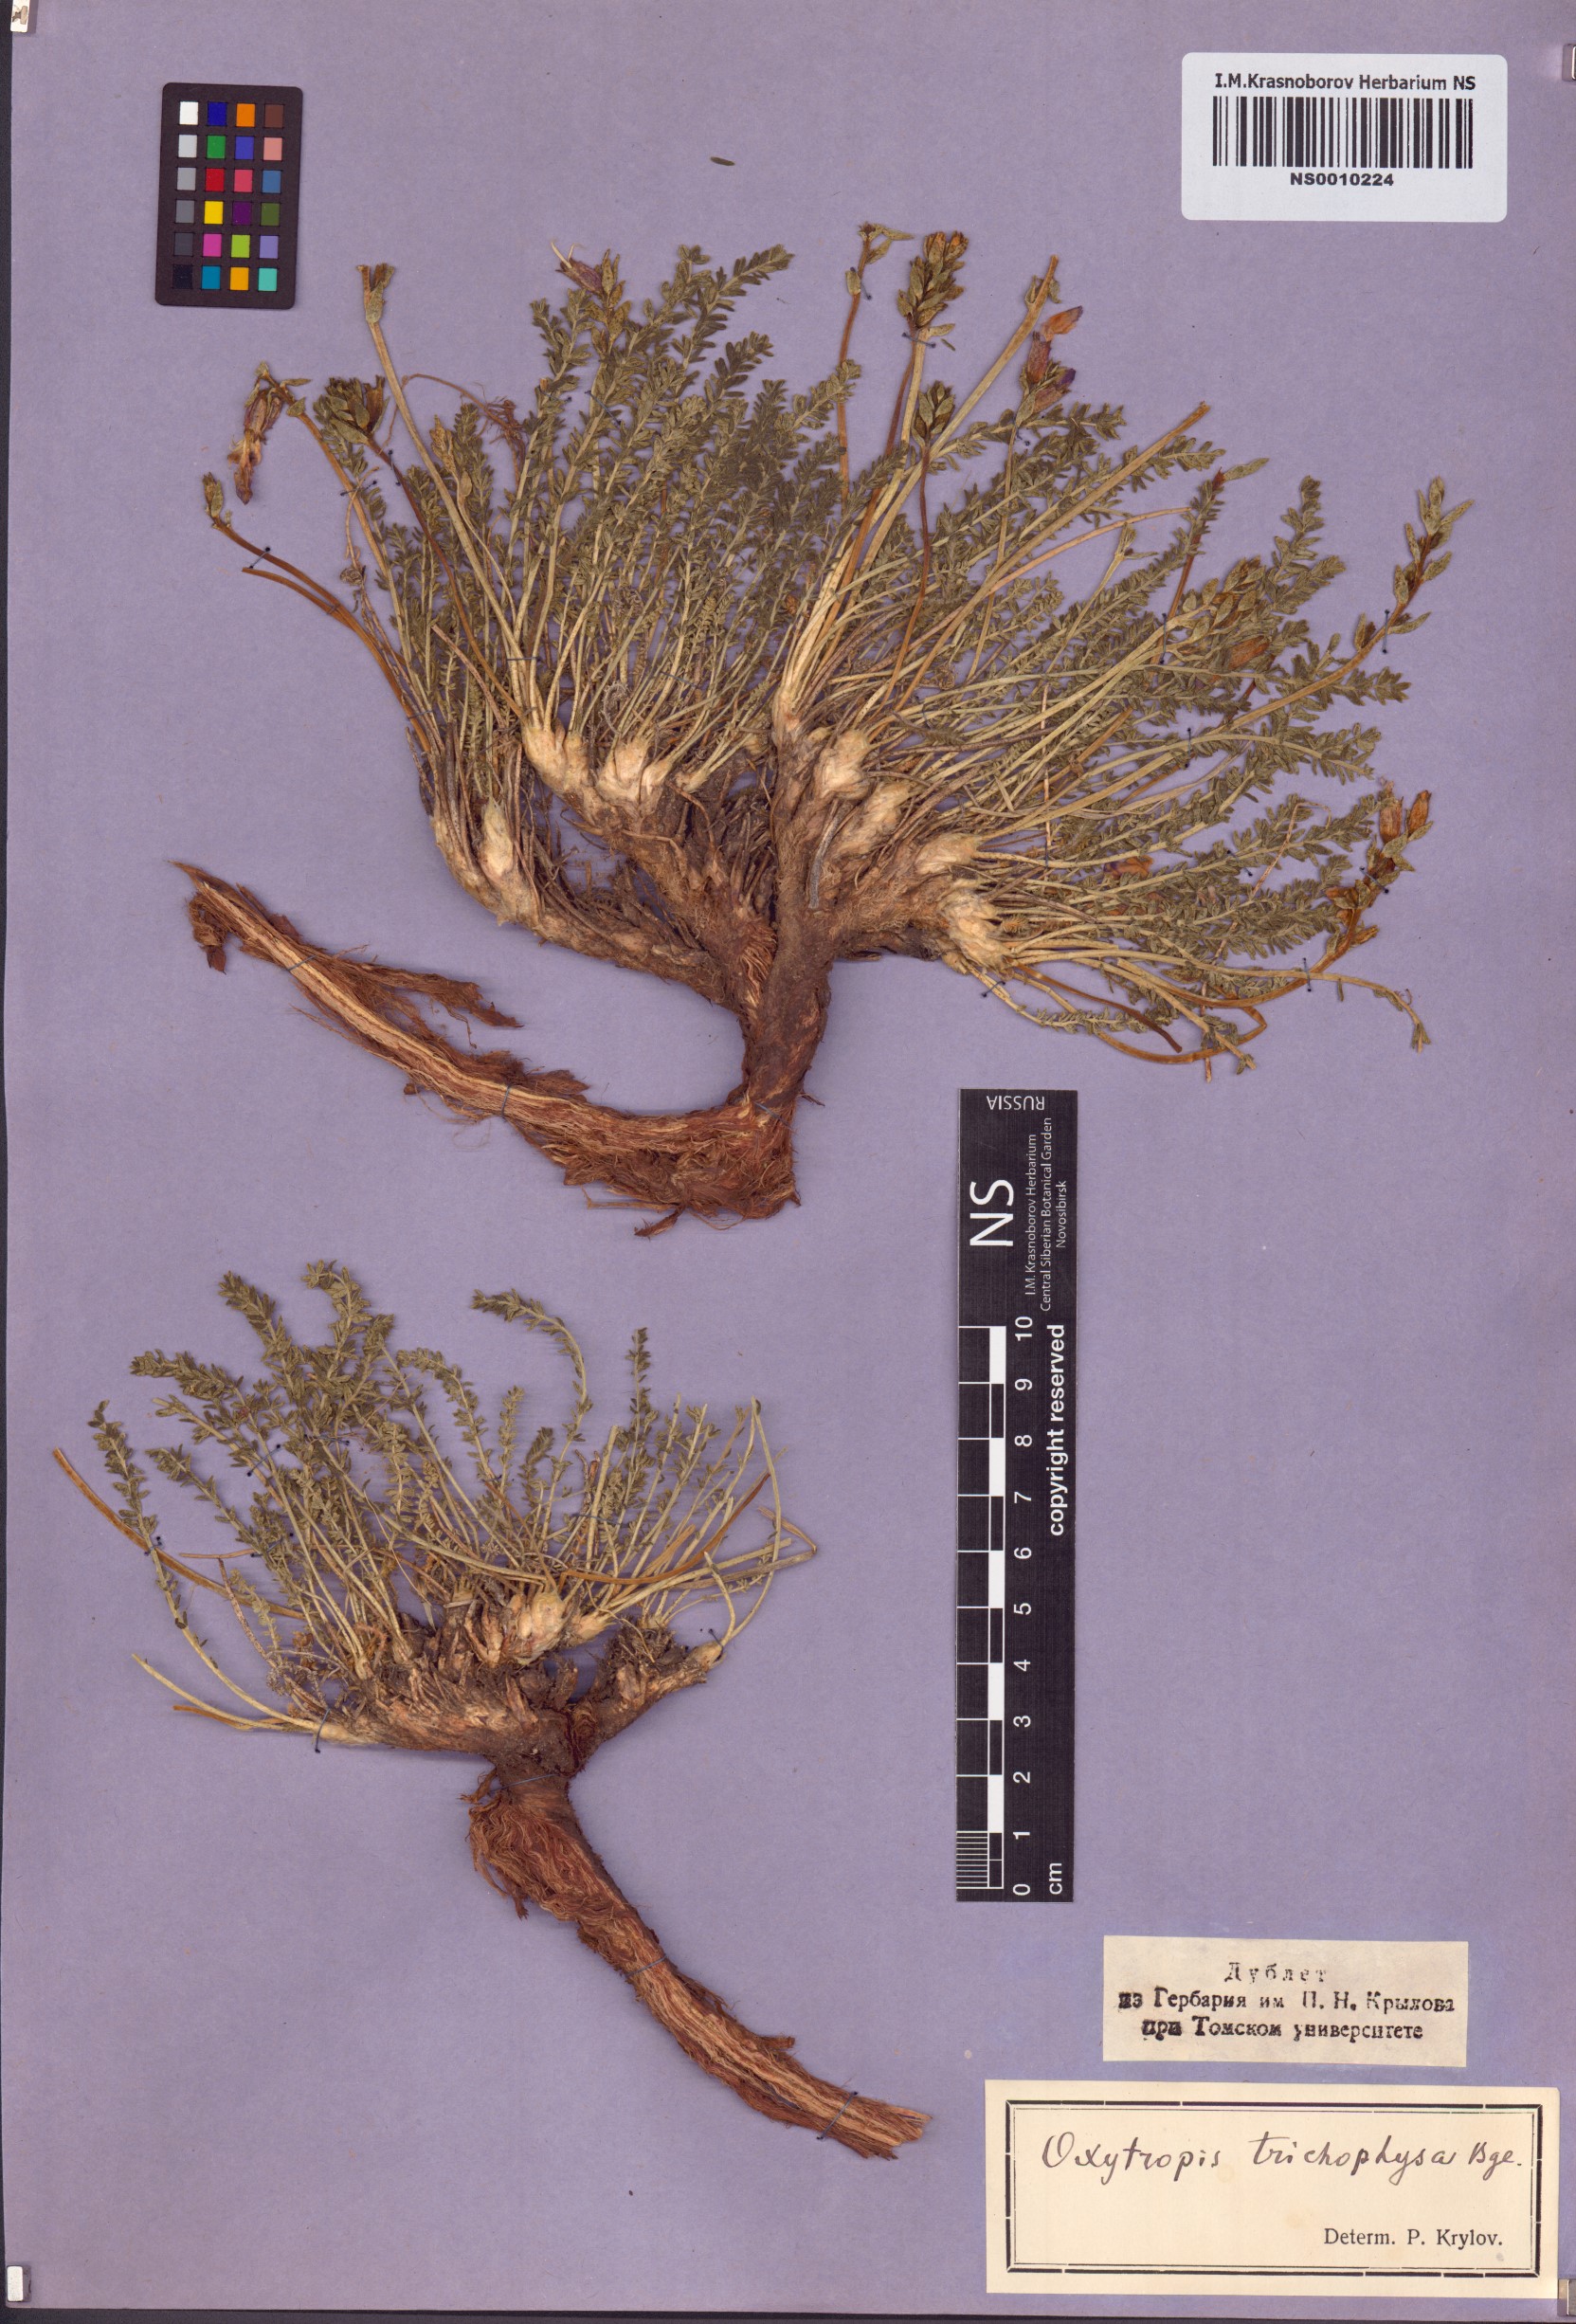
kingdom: Plantae
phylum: Tracheophyta
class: Magnoliopsida
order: Fabales
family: Fabaceae
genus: Oxytropis
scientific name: Oxytropis trichophysa
